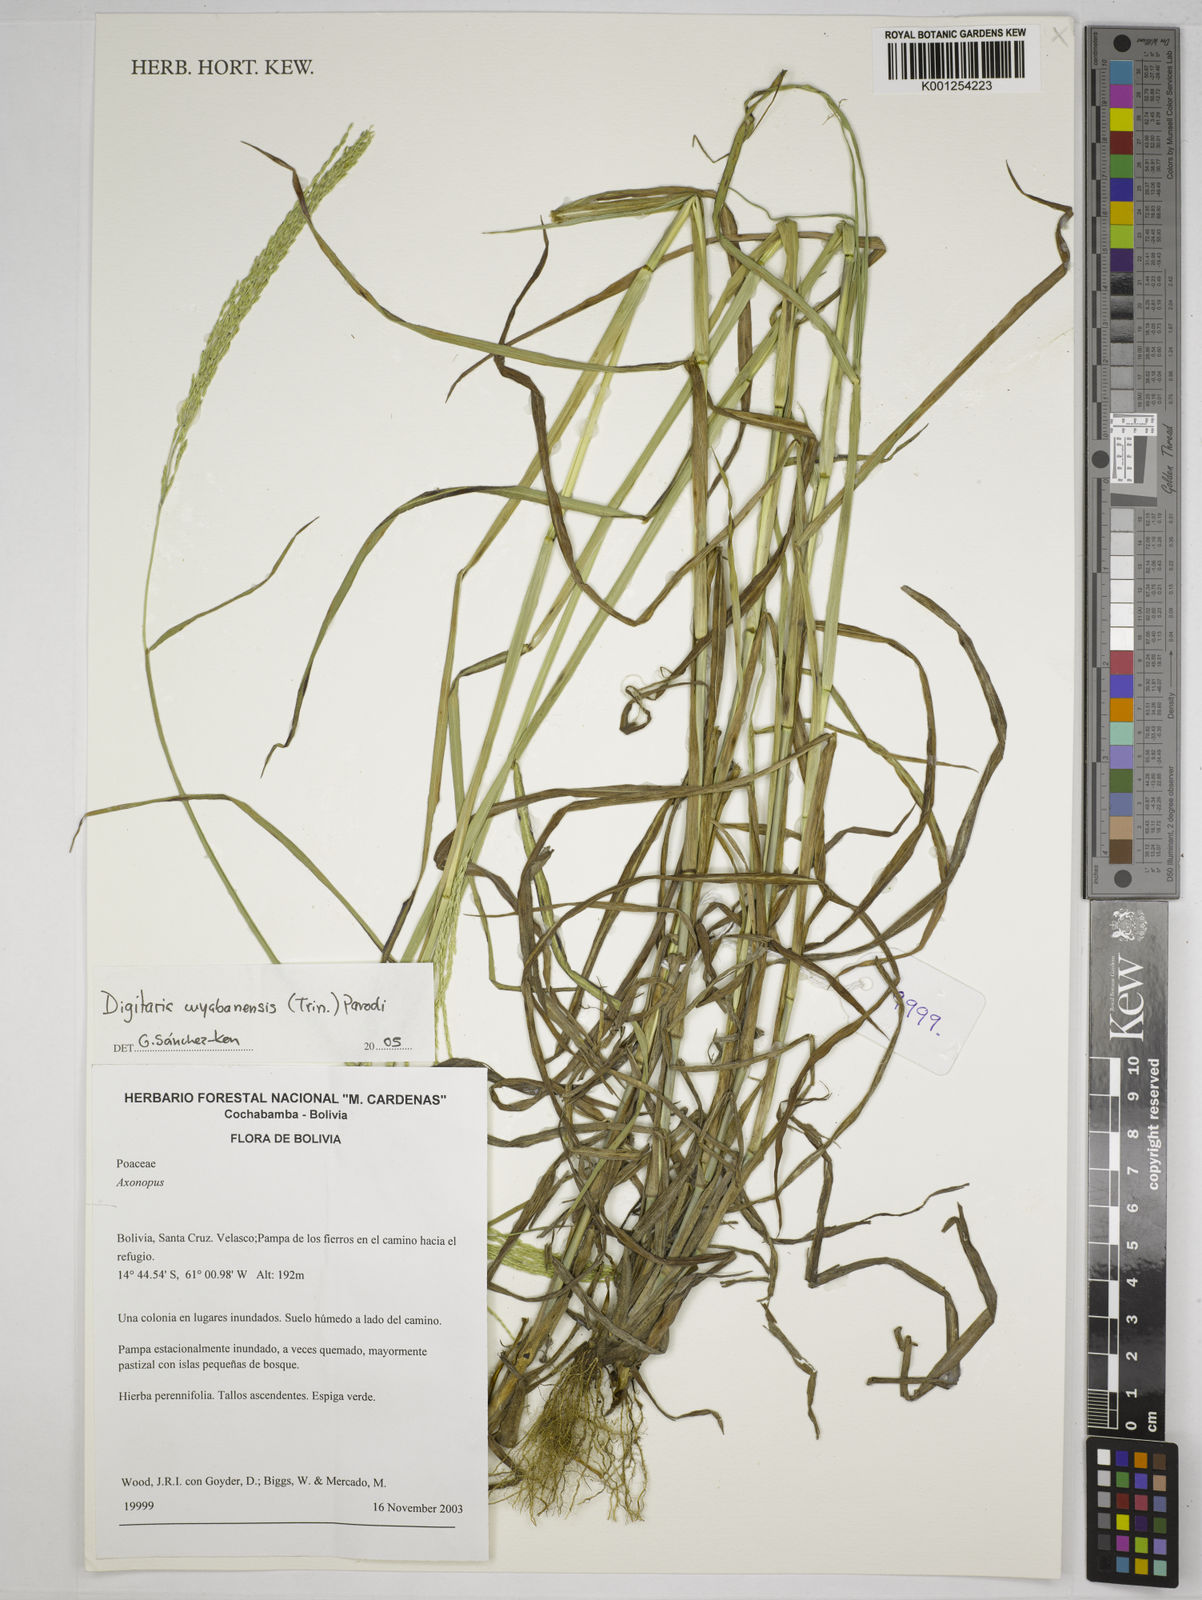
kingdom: Plantae
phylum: Tracheophyta
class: Liliopsida
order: Poales
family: Poaceae
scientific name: Poaceae
